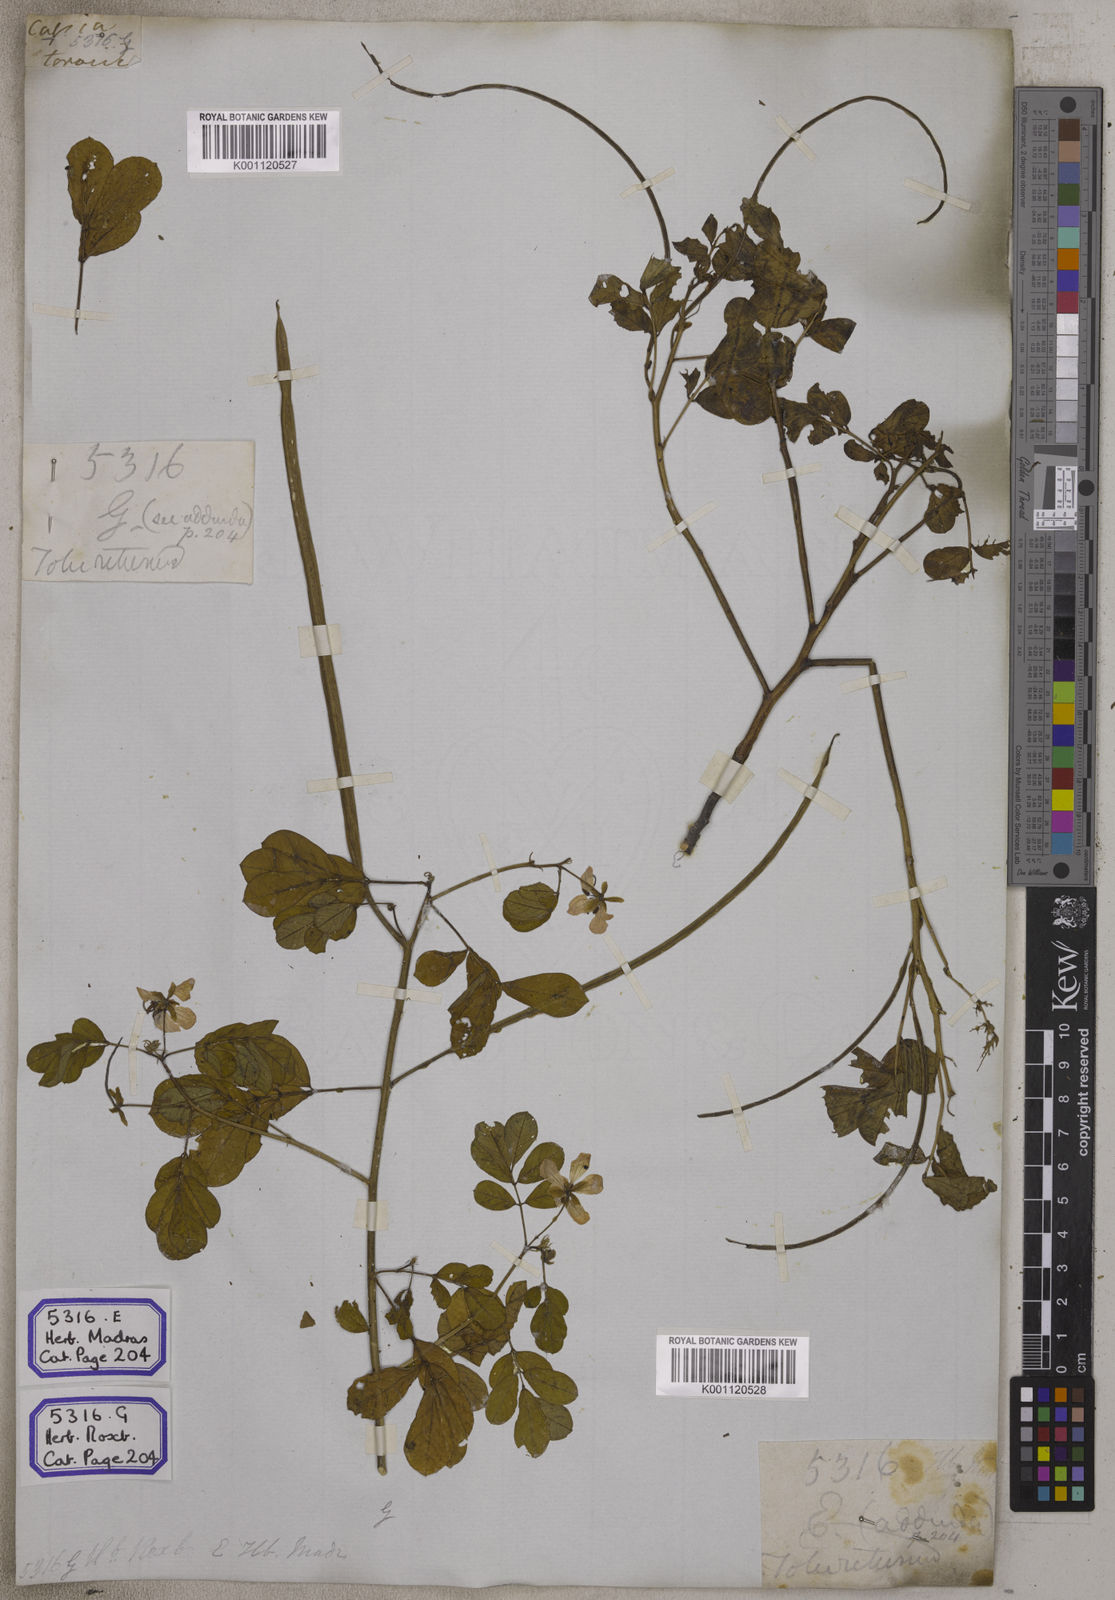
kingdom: Plantae
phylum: Tracheophyta
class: Magnoliopsida
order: Fabales
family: Fabaceae
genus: Senna
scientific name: Senna tora
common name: Sickle senna
